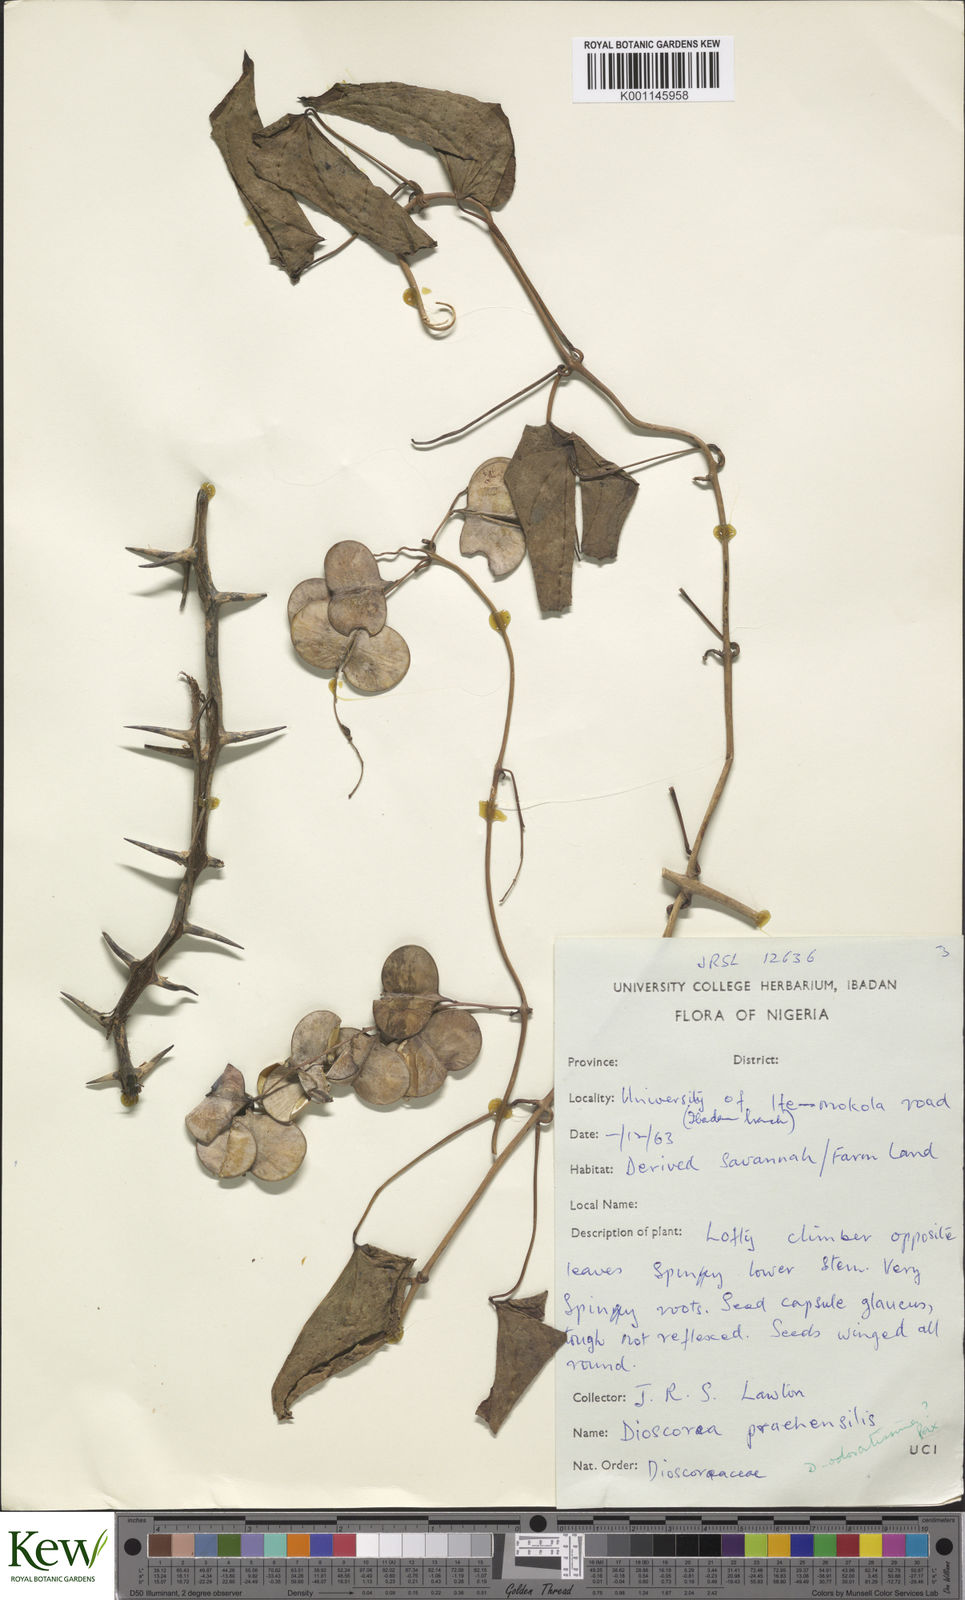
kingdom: Plantae
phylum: Tracheophyta
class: Liliopsida
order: Dioscoreales
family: Dioscoreaceae
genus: Dioscorea
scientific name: Dioscorea praehensilis
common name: Bush yam
